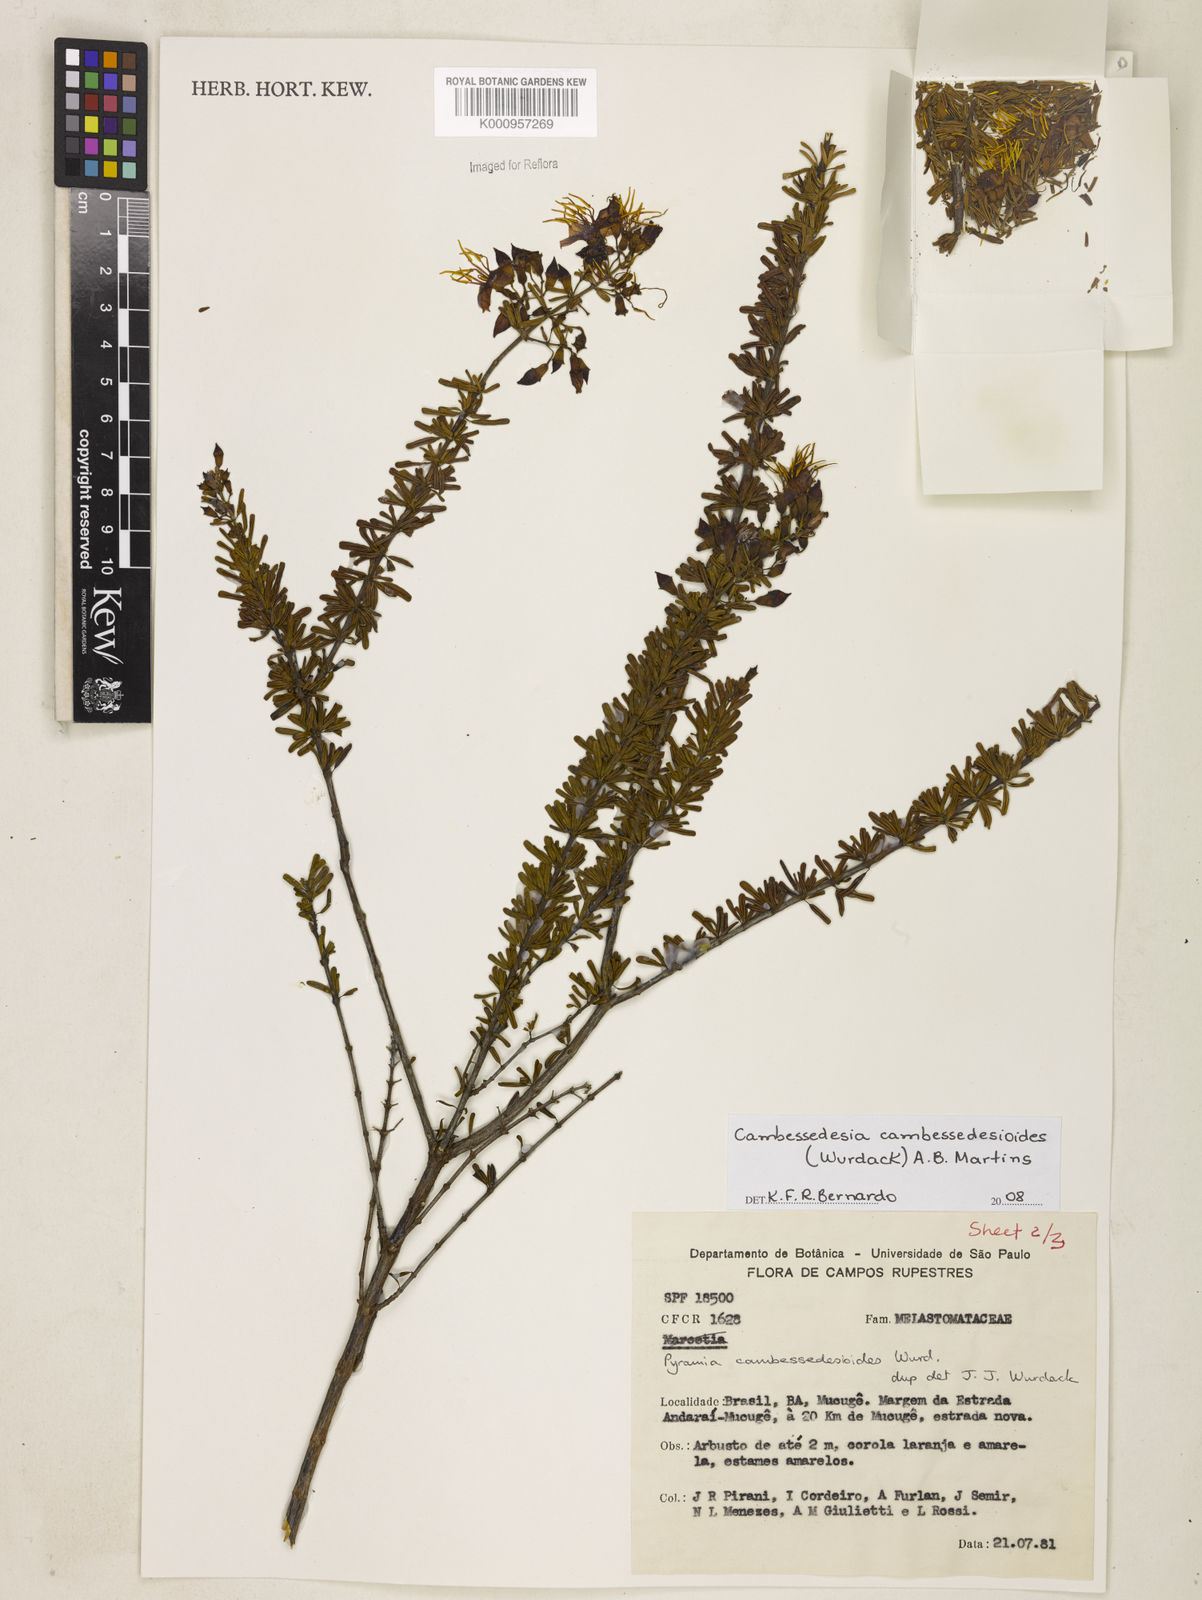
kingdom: Plantae
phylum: Tracheophyta
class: Magnoliopsida
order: Myrtales
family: Melastomataceae
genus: Cambessedesia
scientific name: Cambessedesia cambessedesioides
